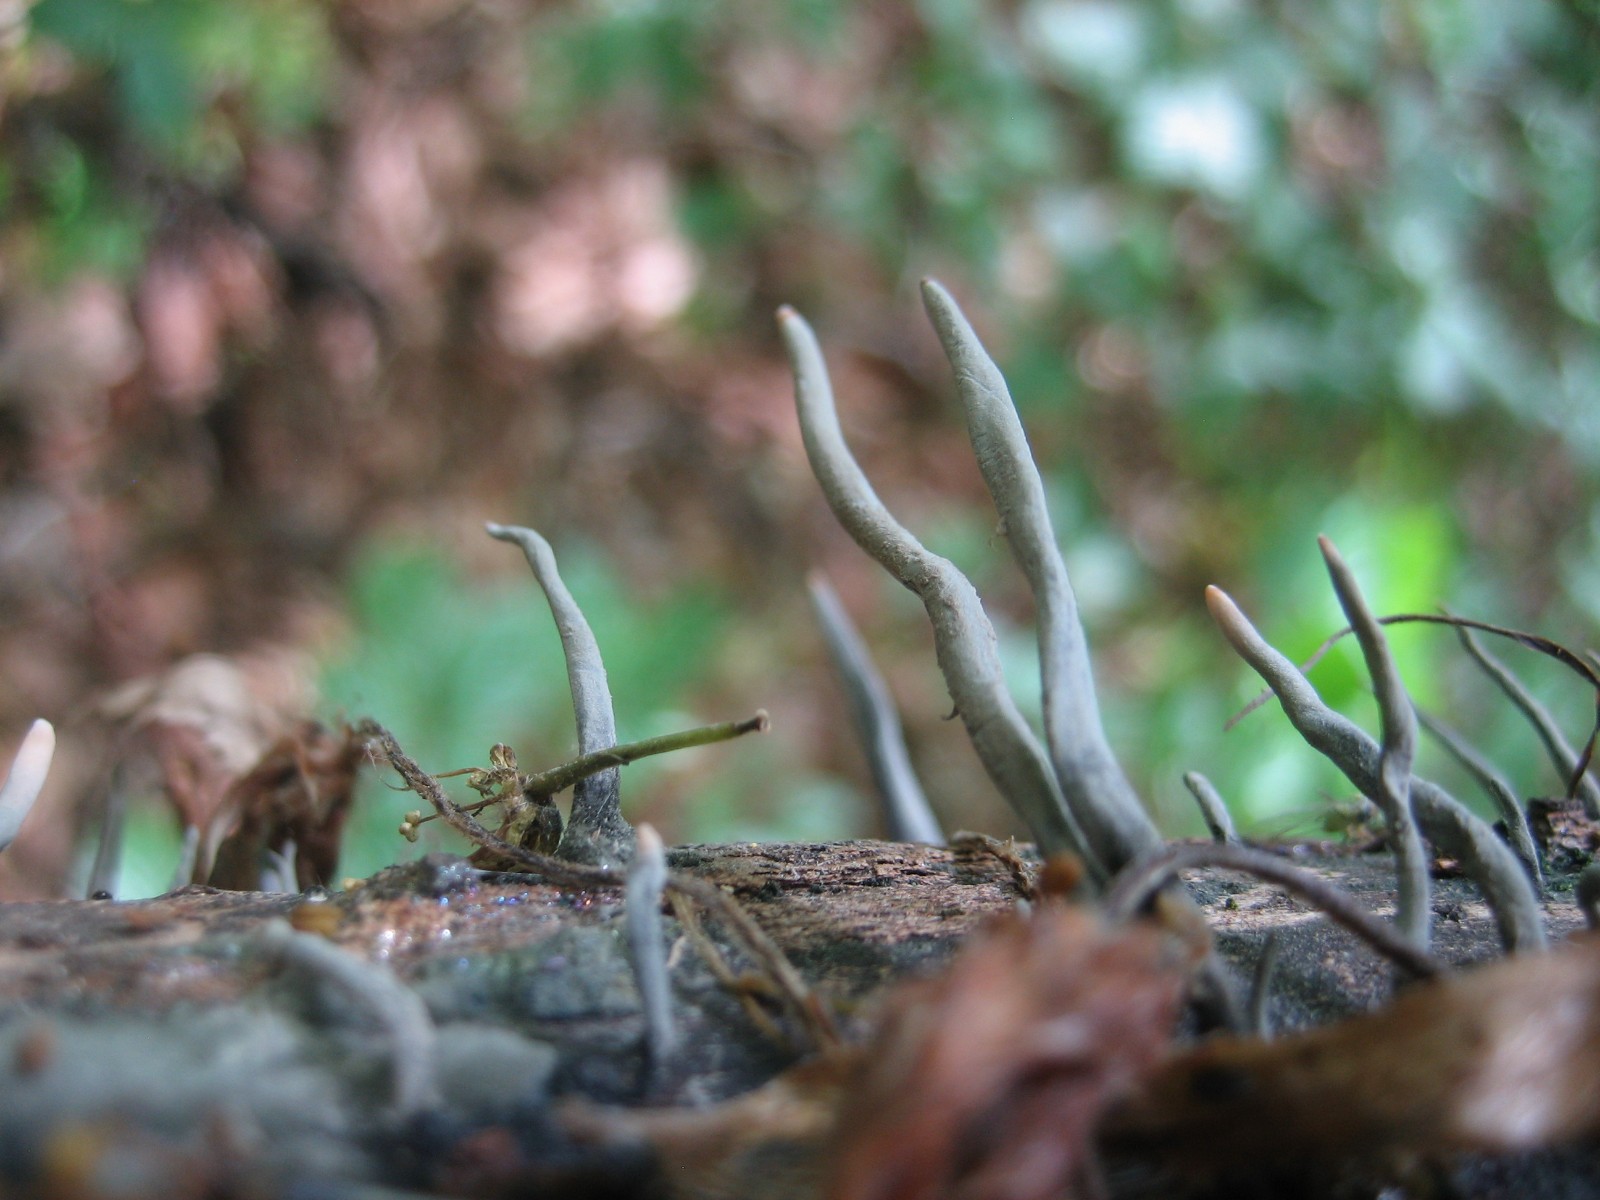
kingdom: Fungi
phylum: Ascomycota
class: Sordariomycetes
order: Xylariales
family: Xylariaceae
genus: Xylaria
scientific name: Xylaria hypoxylon
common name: grenet stødsvamp
